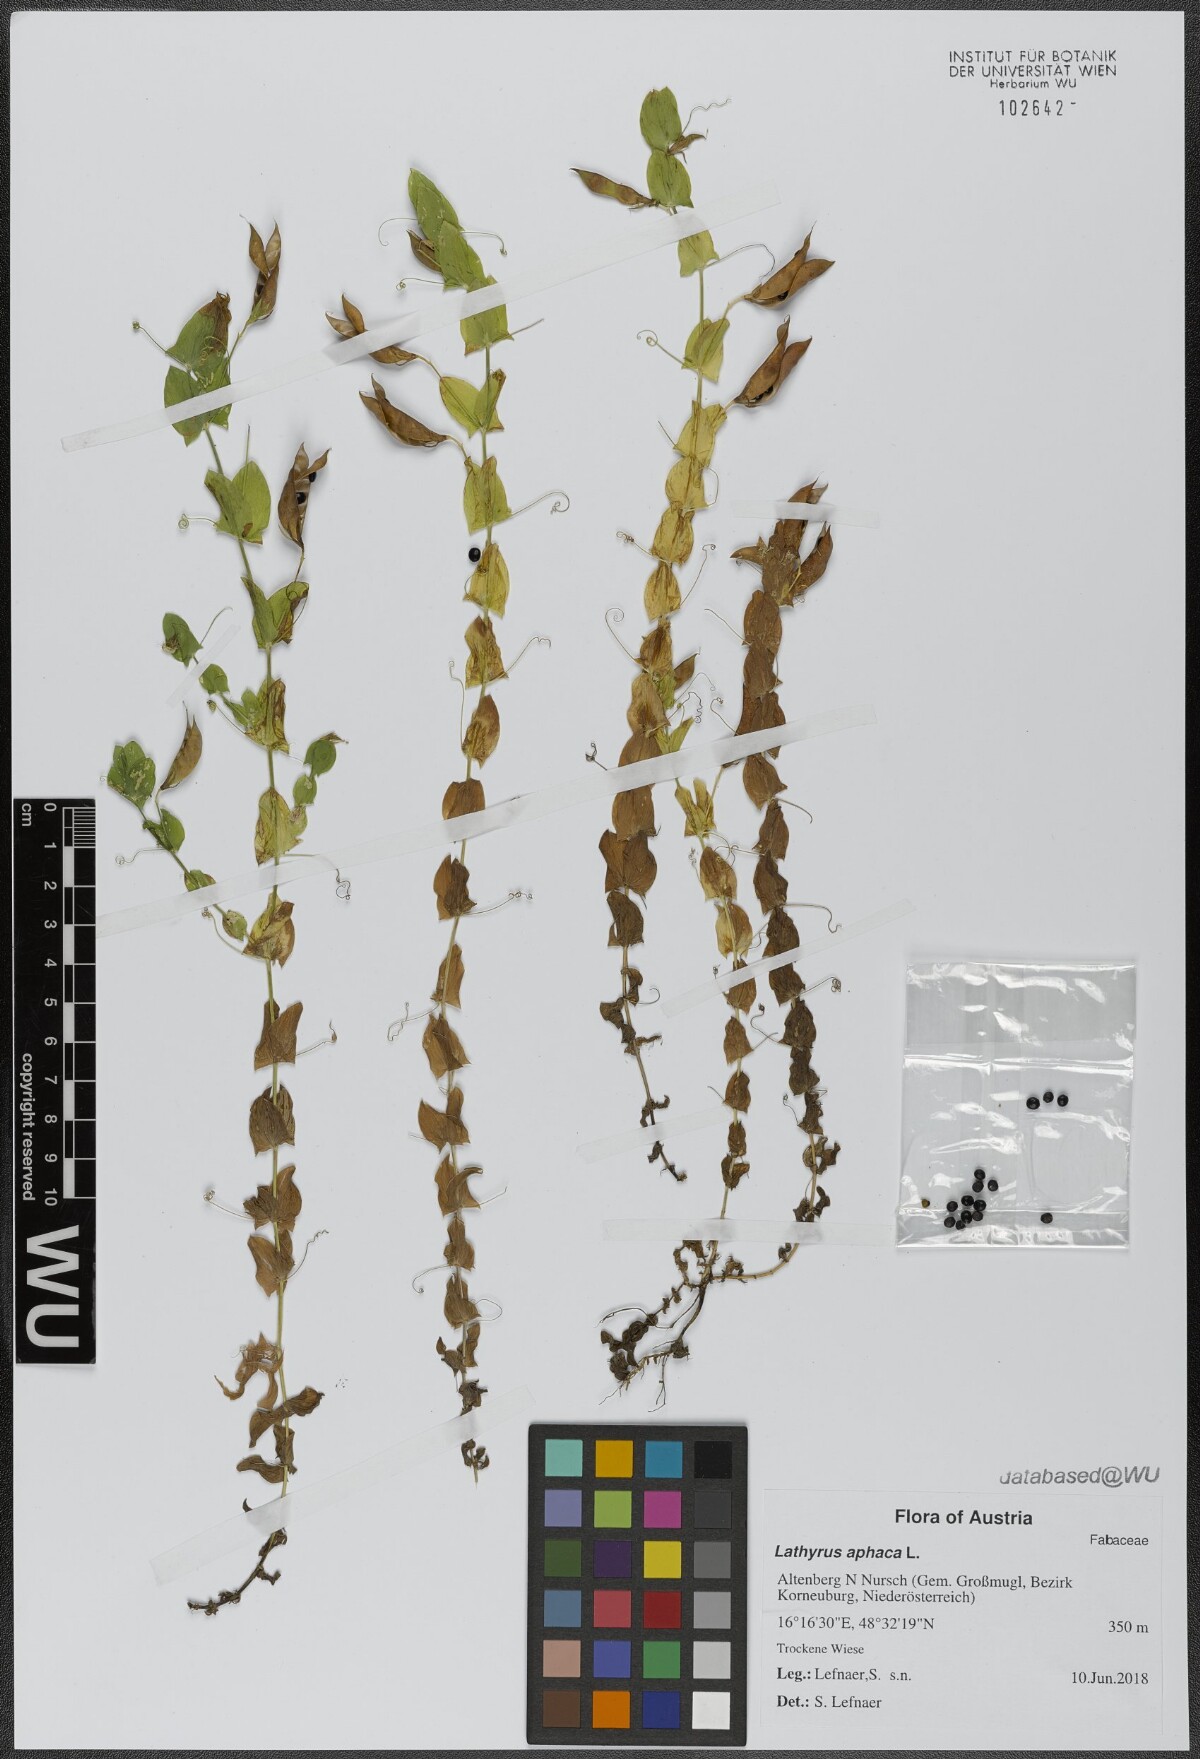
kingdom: Plantae
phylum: Tracheophyta
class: Magnoliopsida
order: Fabales
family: Fabaceae
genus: Lathyrus
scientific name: Lathyrus aphaca
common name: Yellow vetchling
